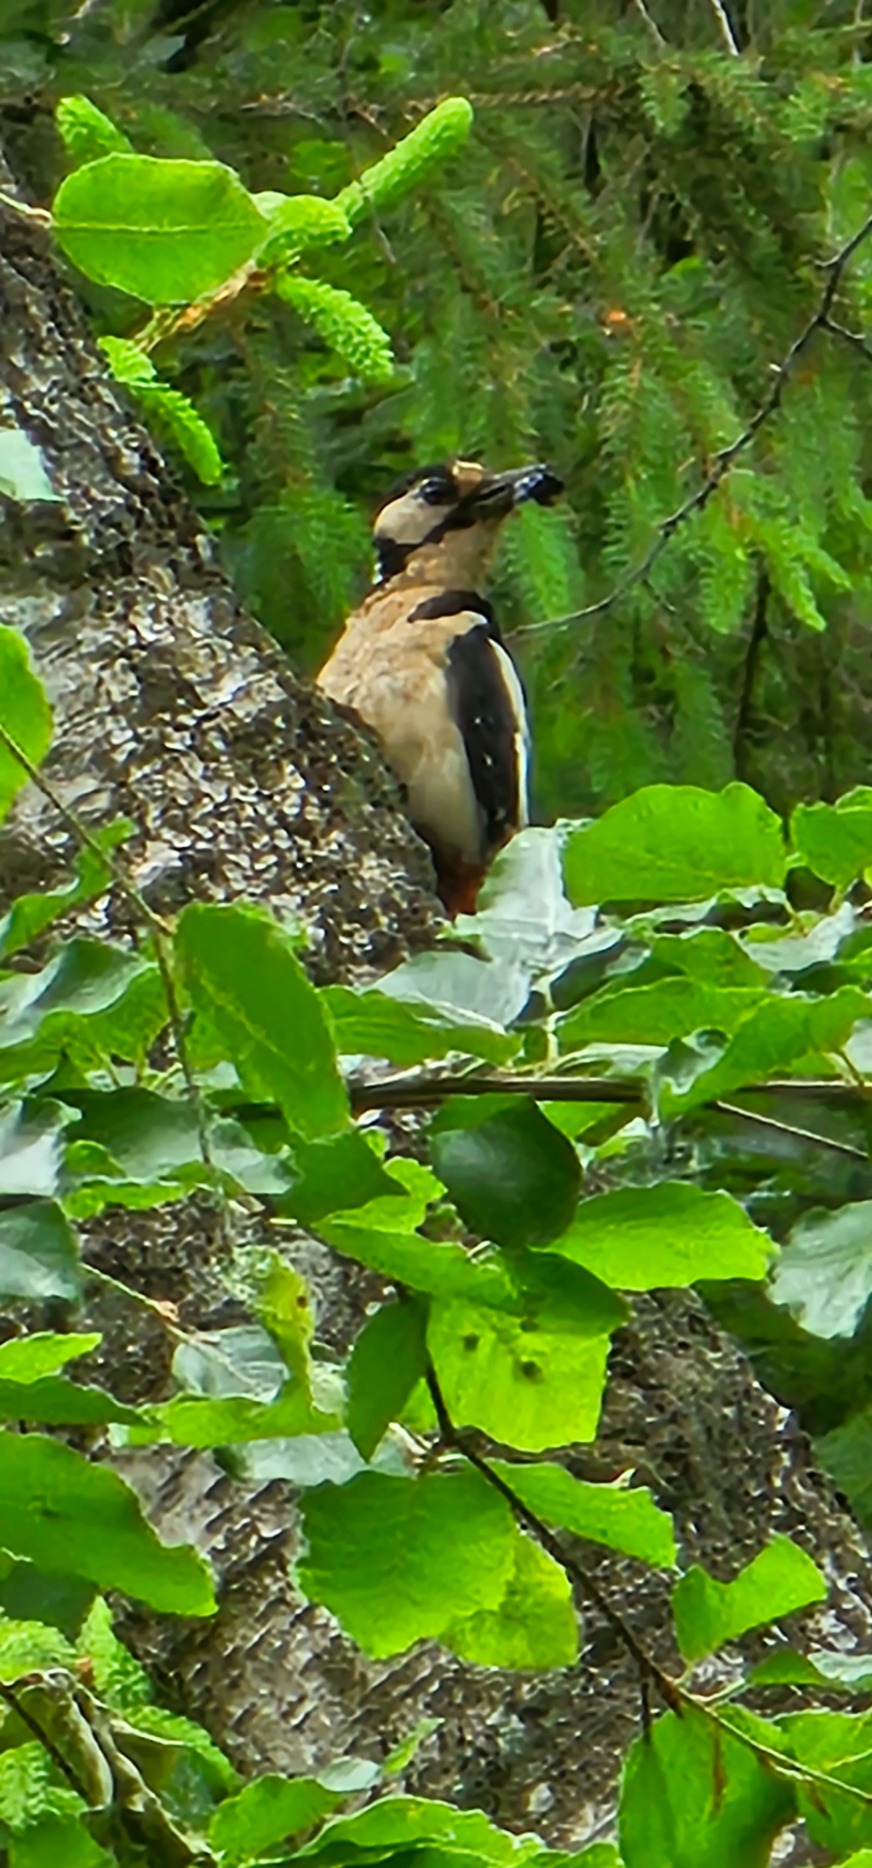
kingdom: Animalia
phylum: Chordata
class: Aves
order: Piciformes
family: Picidae
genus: Dendrocopos
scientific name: Dendrocopos major
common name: Stor flagspætte
